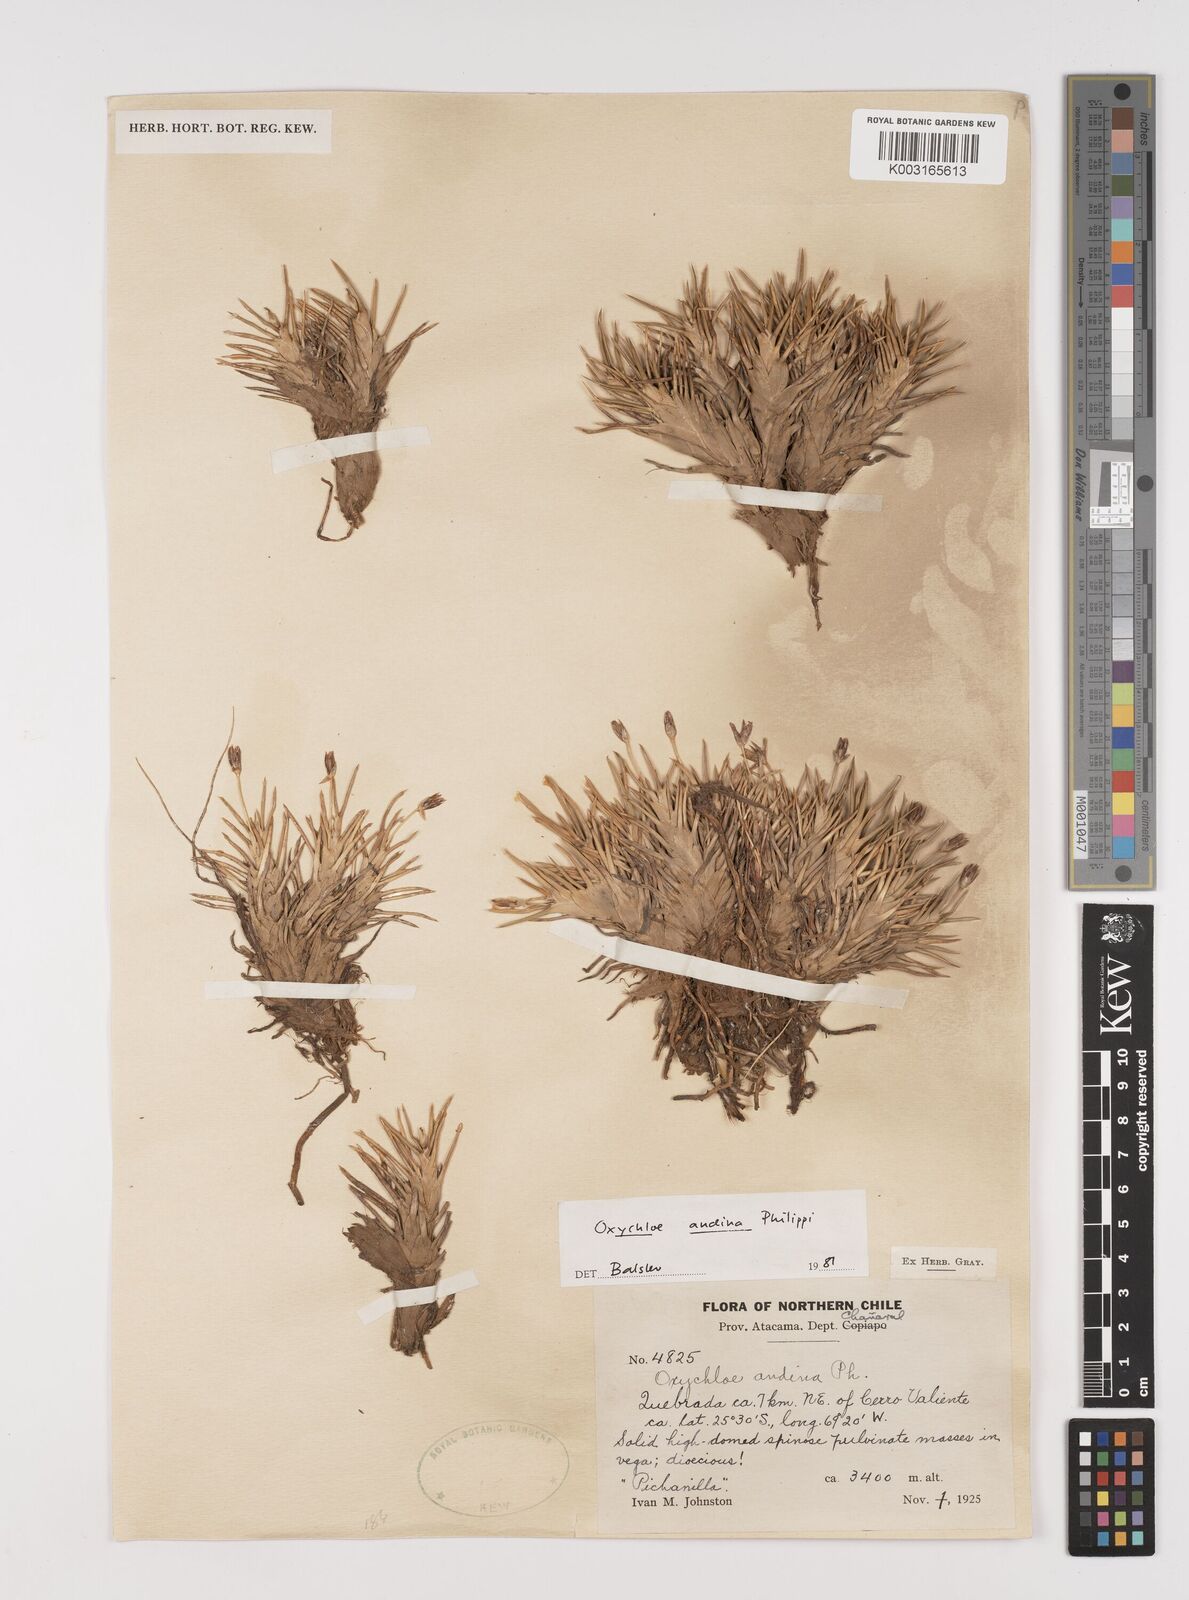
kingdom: Plantae
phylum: Tracheophyta
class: Liliopsida
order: Poales
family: Juncaceae
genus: Oxychloe
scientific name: Oxychloe andina
